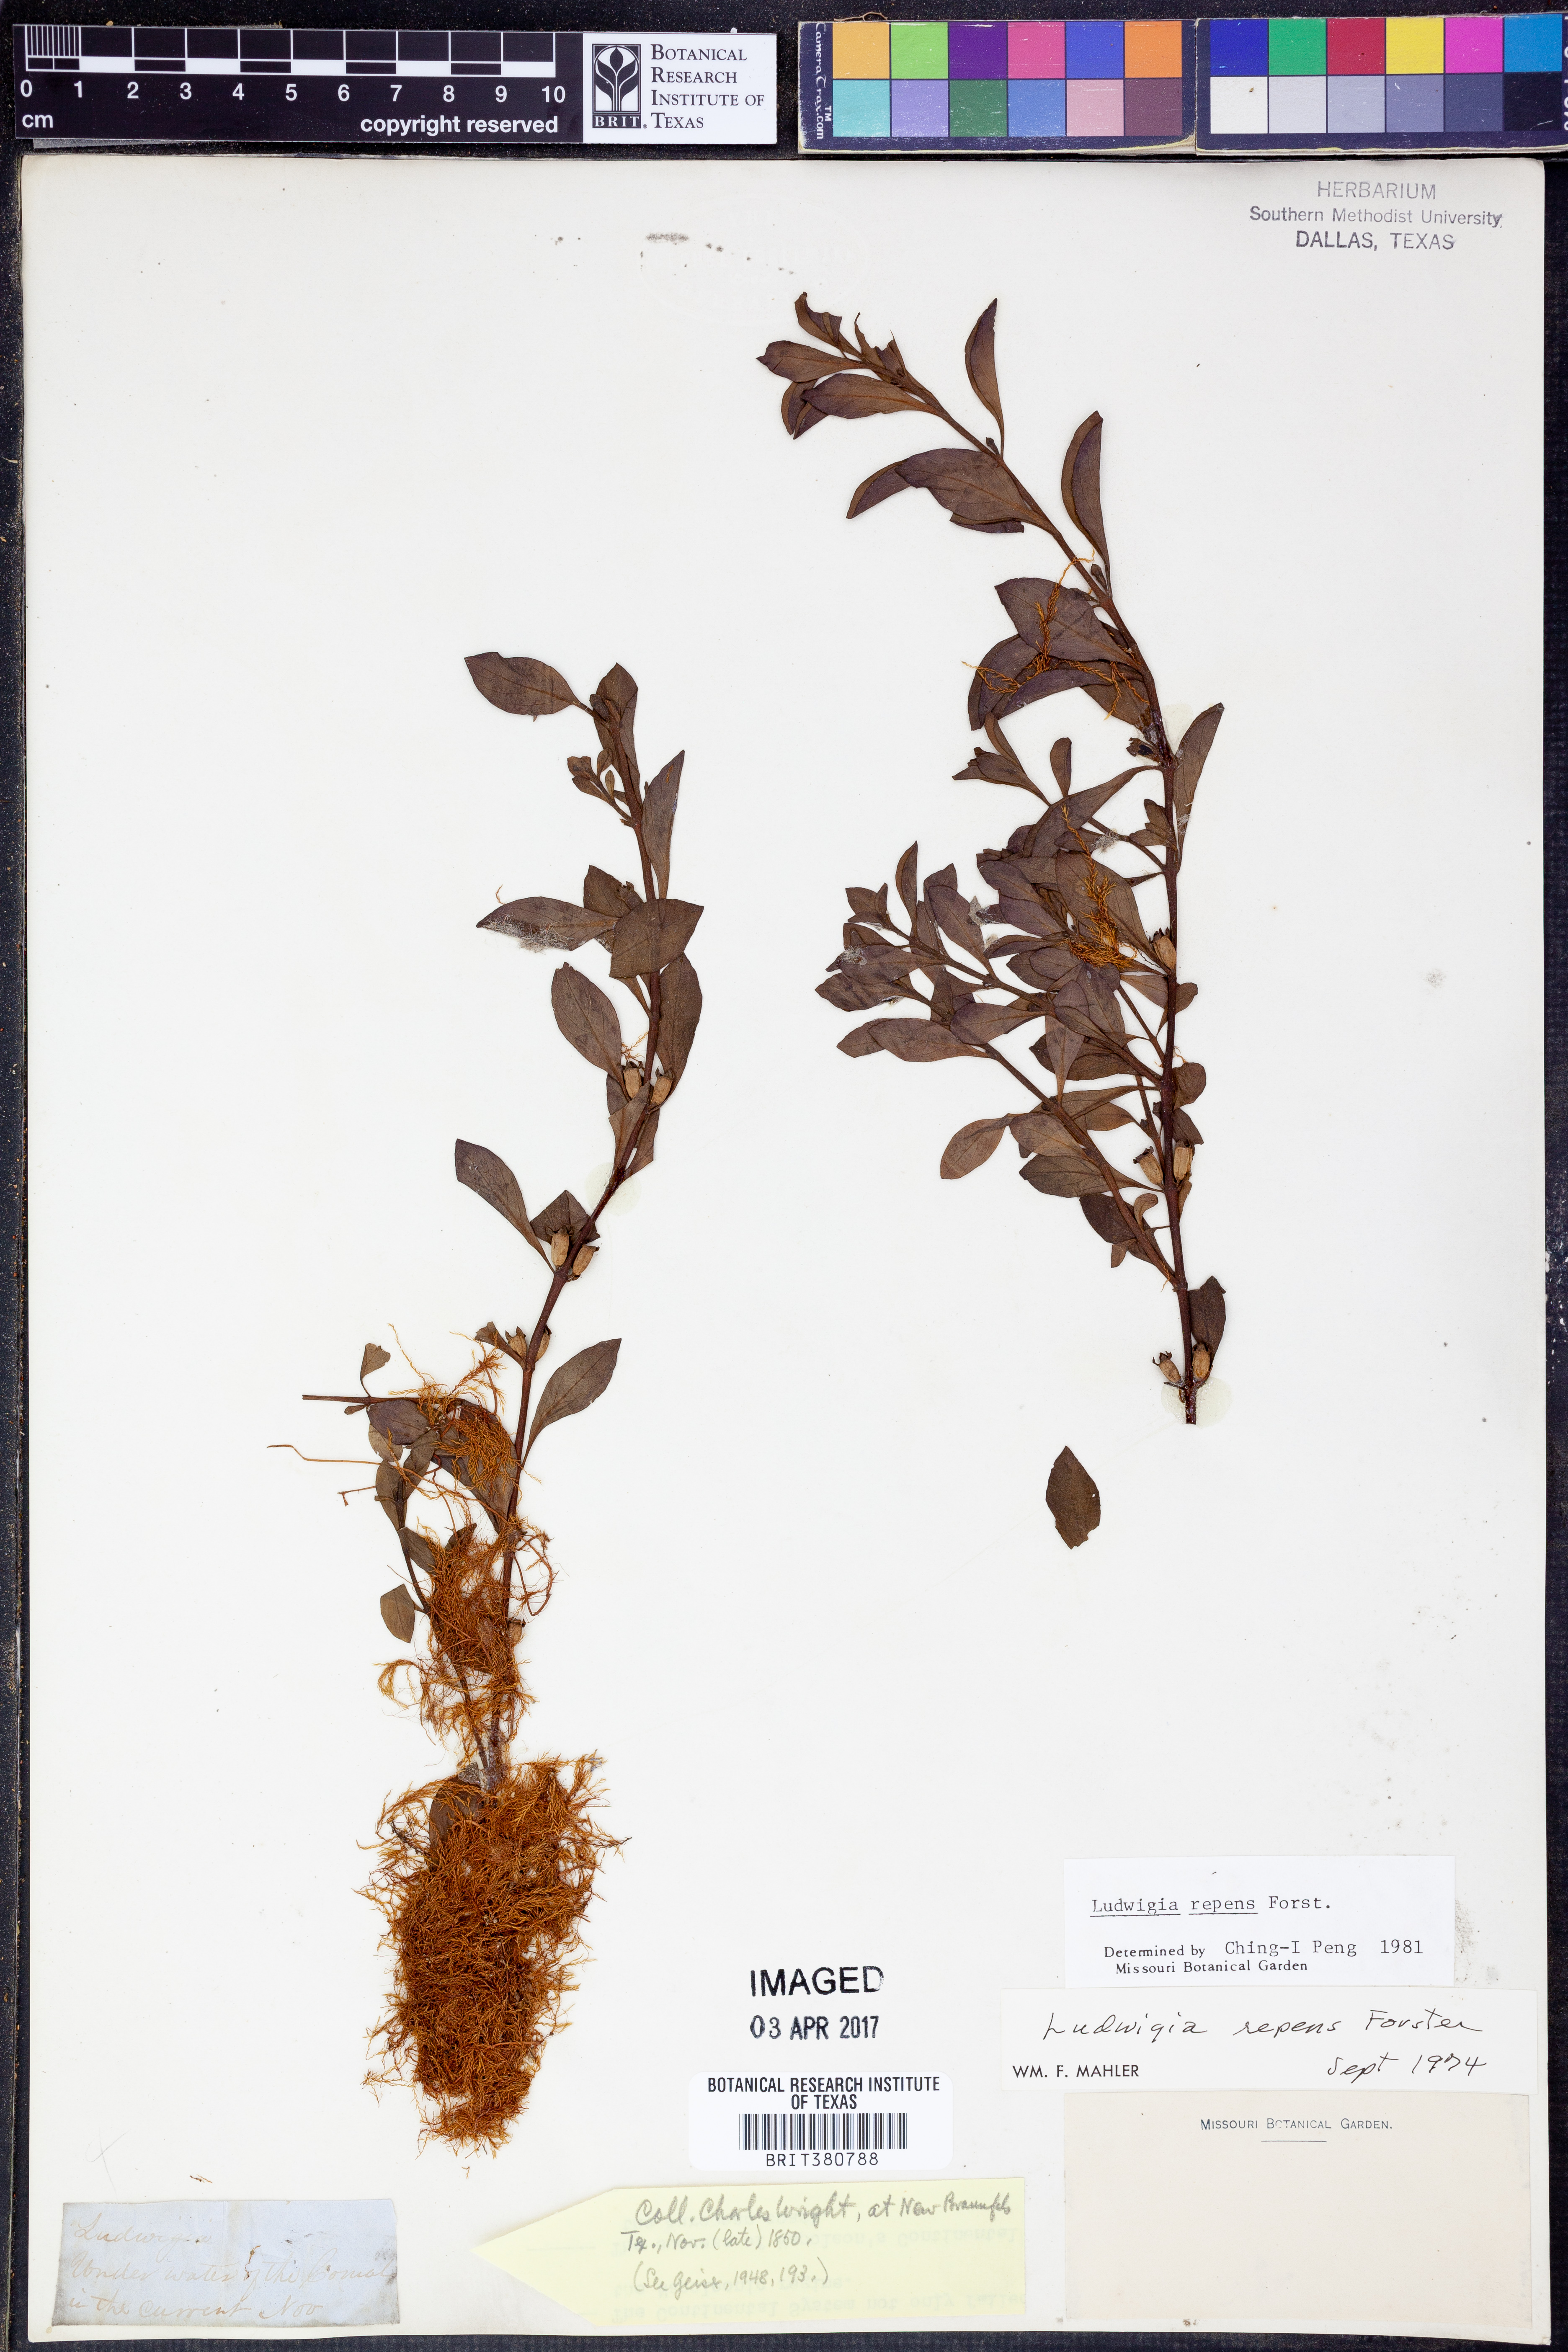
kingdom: Plantae
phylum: Tracheophyta
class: Magnoliopsida
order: Myrtales
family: Onagraceae
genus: Ludwigia
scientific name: Ludwigia repens
